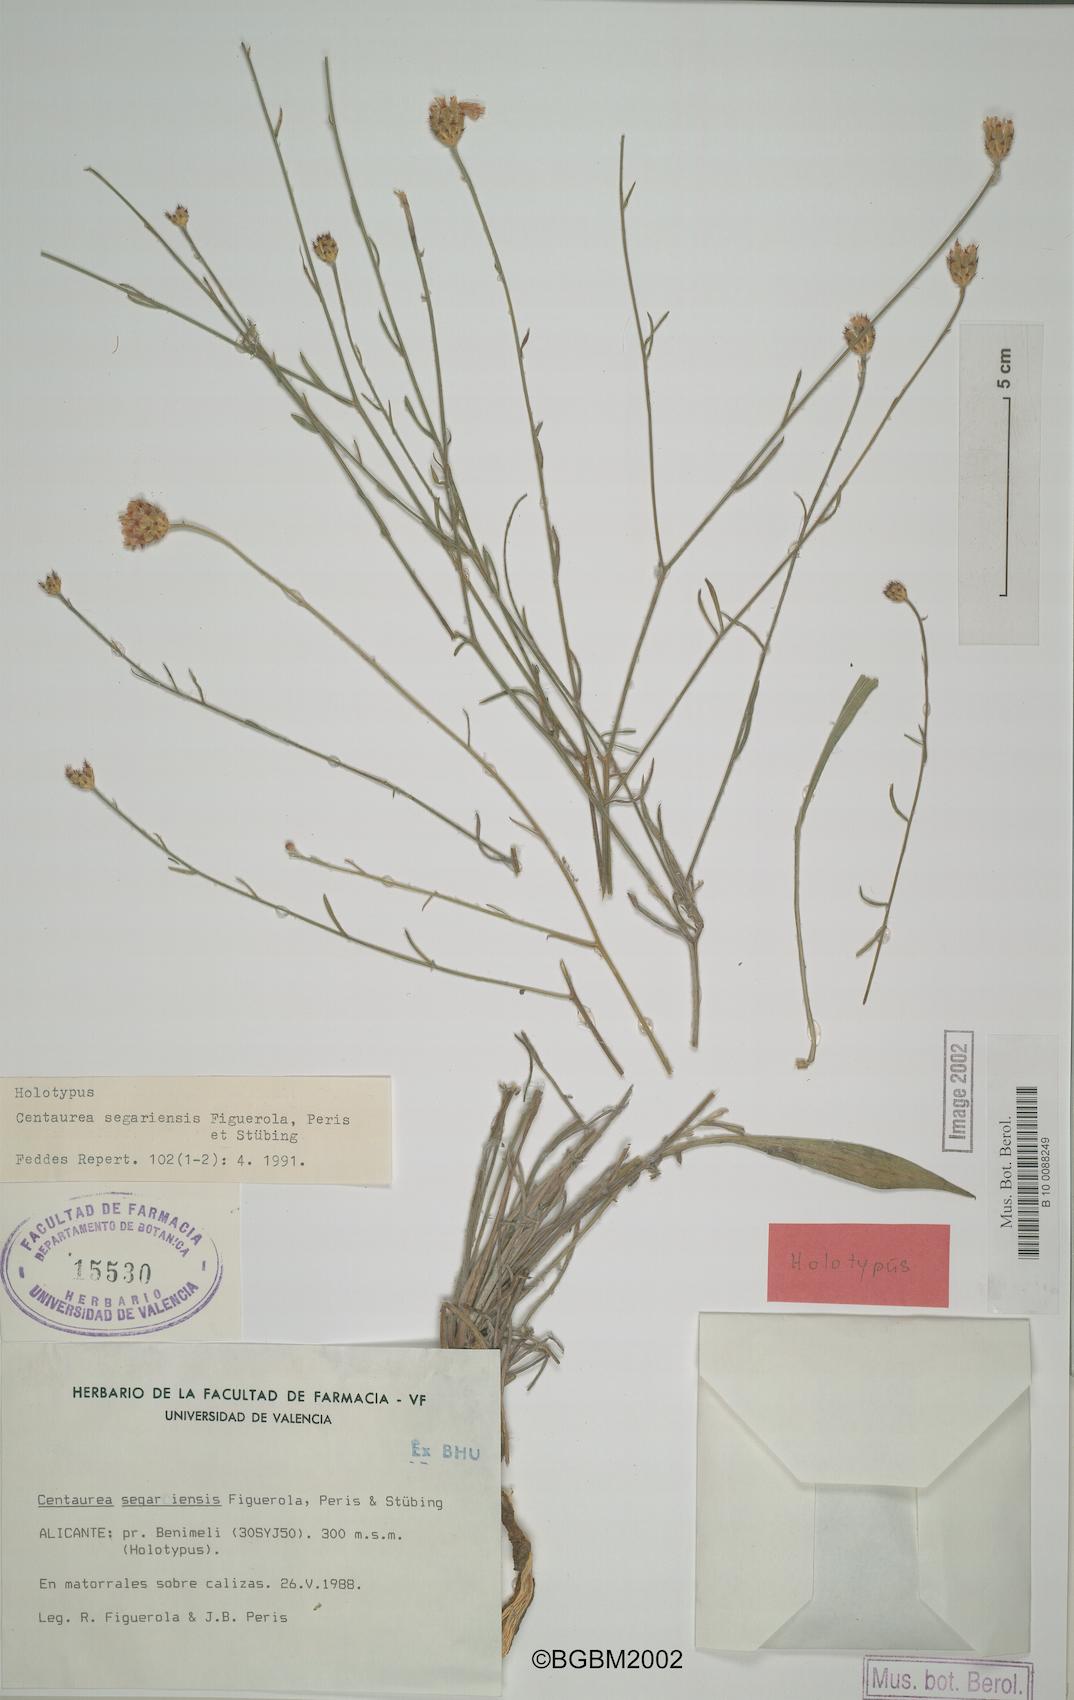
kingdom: Plantae
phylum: Tracheophyta
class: Magnoliopsida
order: Asterales
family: Asteraceae
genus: Centaurea
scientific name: Centaurea rouyi
